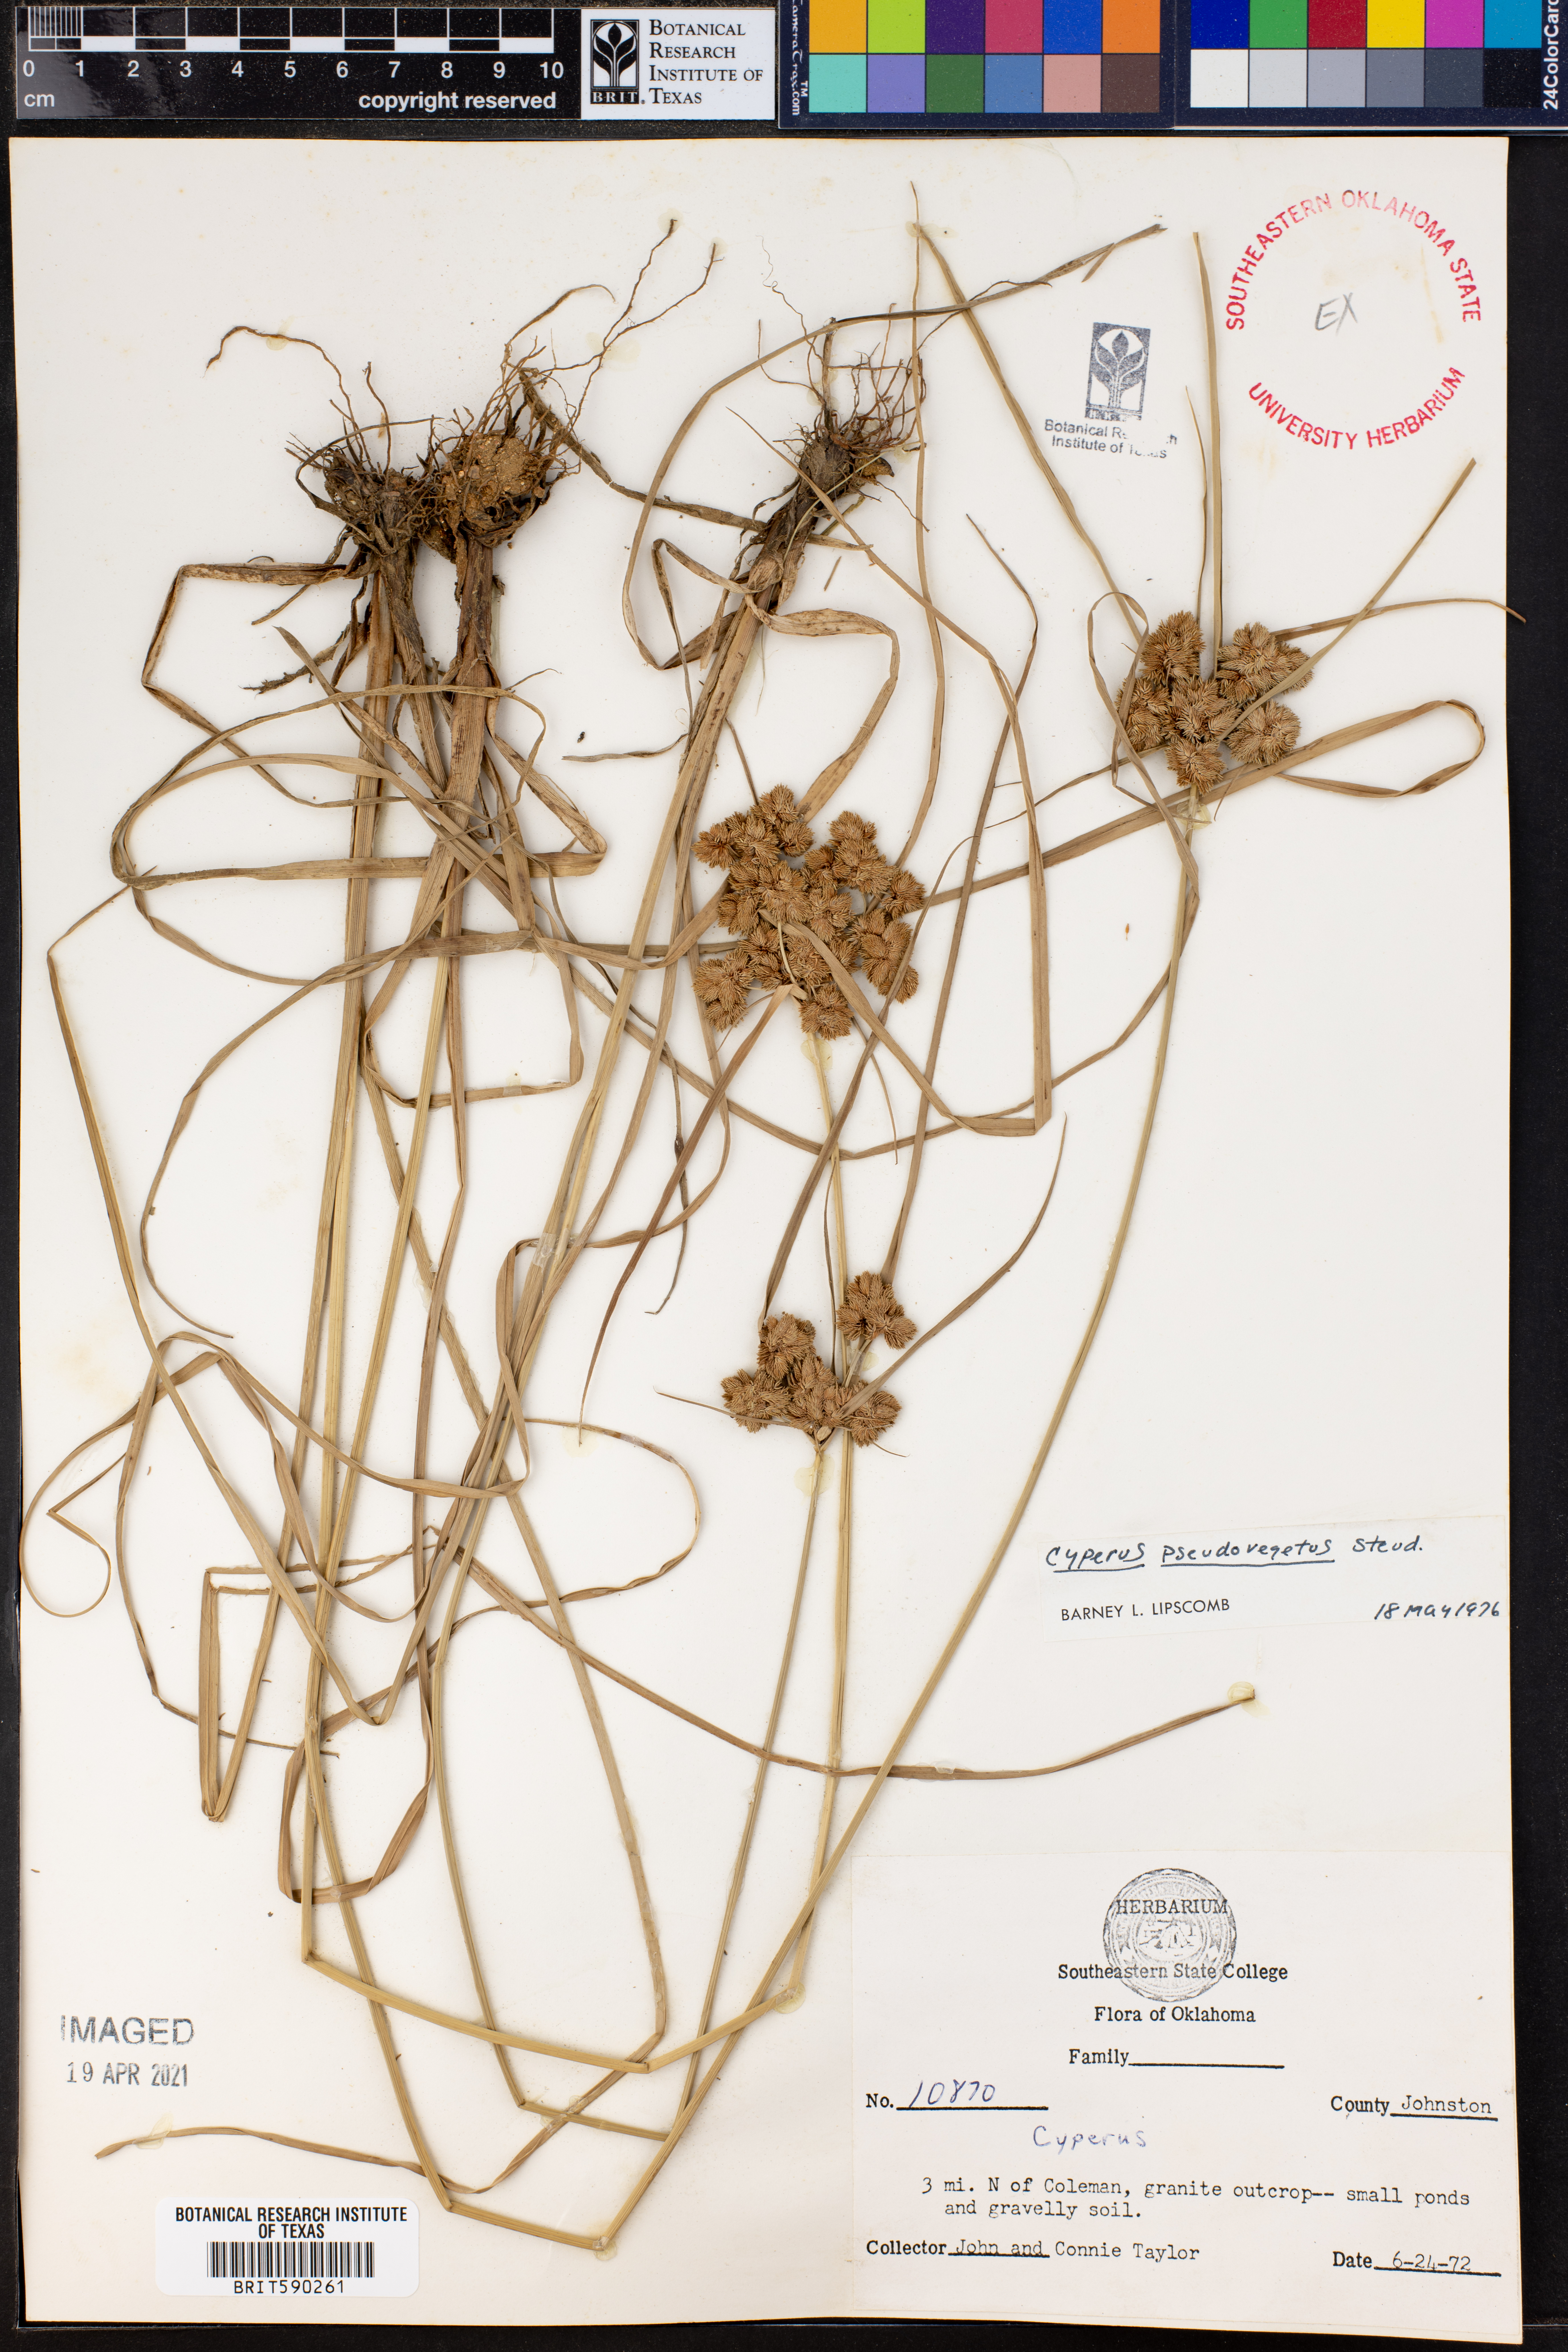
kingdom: Plantae
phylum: Tracheophyta
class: Liliopsida
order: Poales
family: Cyperaceae
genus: Cyperus
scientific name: Cyperus pseudovegetus
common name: Marsh flat sedge
